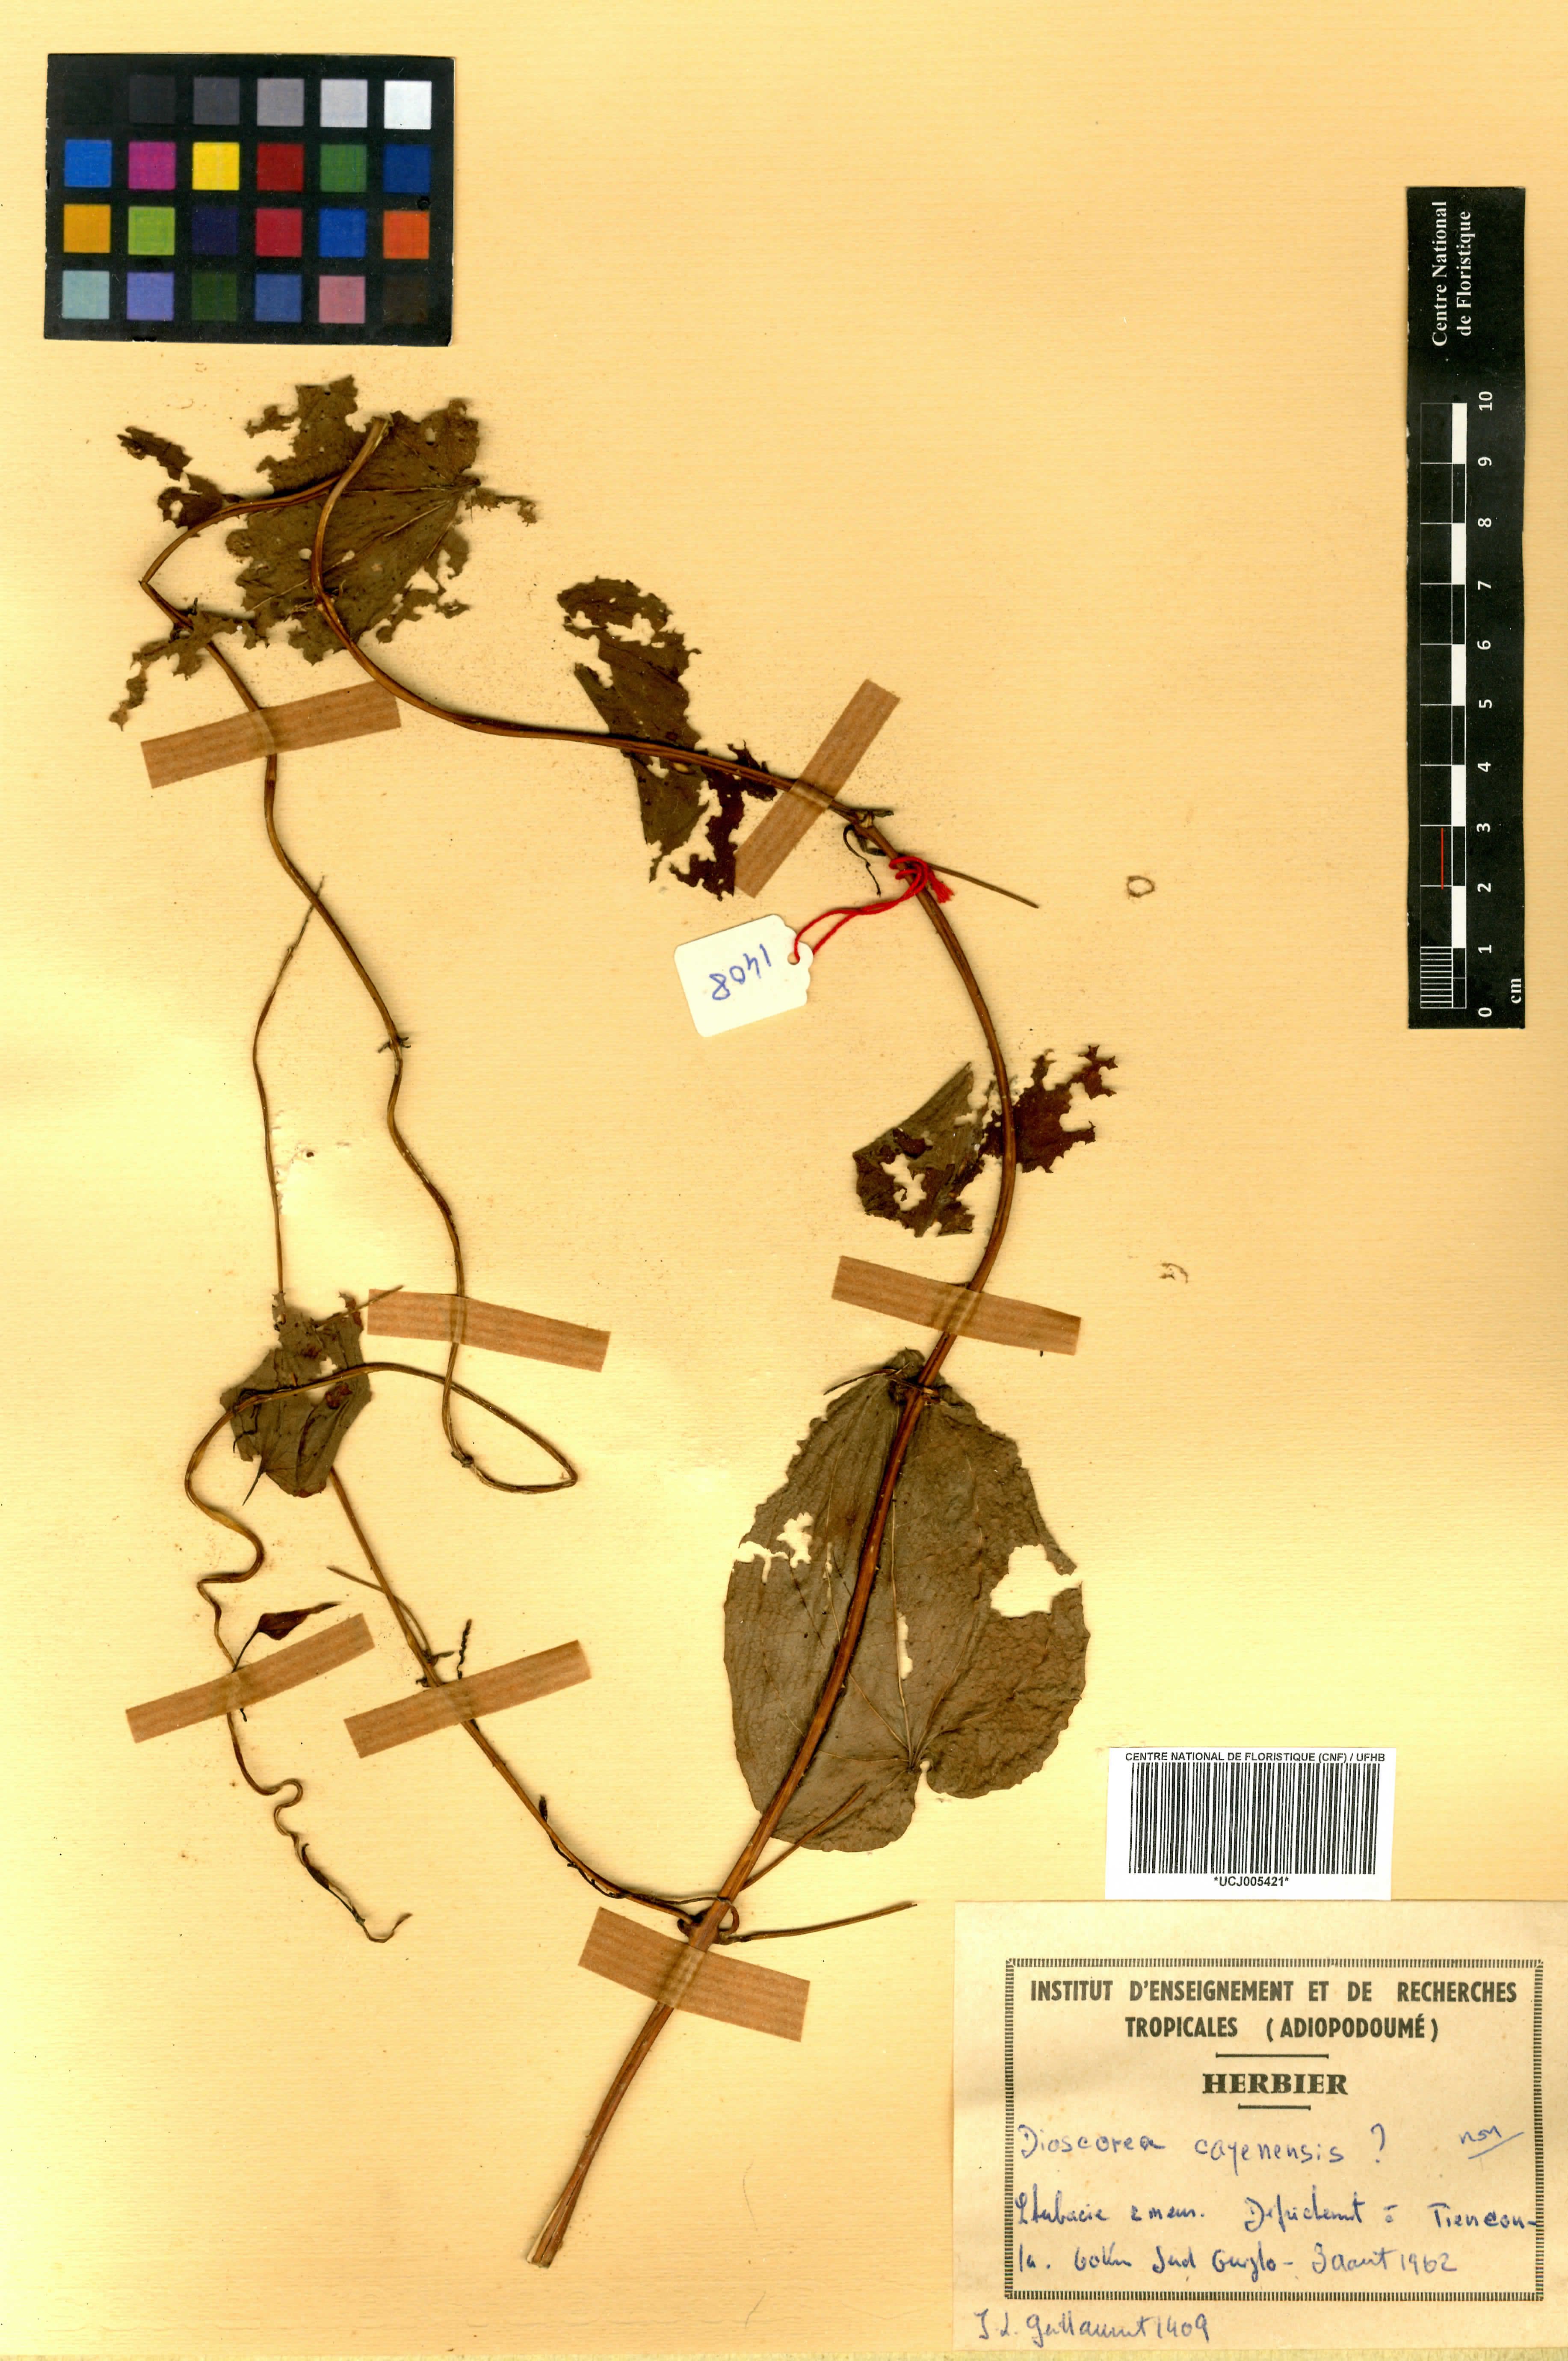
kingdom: Plantae
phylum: Tracheophyta
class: Liliopsida
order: Dioscoreales
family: Dioscoreaceae
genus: Dioscorea
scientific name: Dioscorea bulbifera
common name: Air yam
